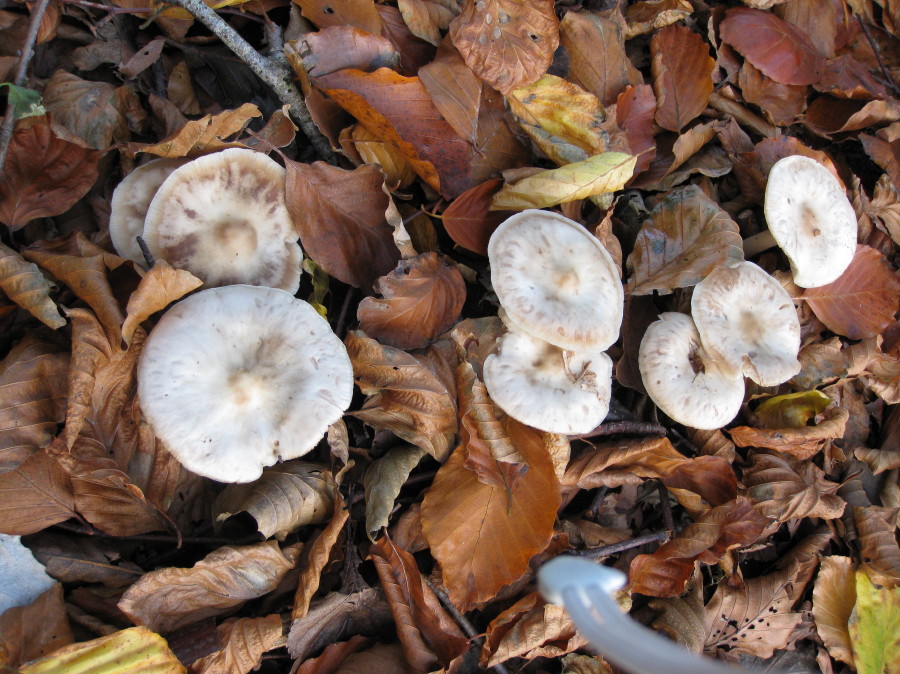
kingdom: Fungi
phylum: Basidiomycota
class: Agaricomycetes
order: Agaricales
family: Omphalotaceae
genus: Rhodocollybia
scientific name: Rhodocollybia asema
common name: horngrå fladhat
